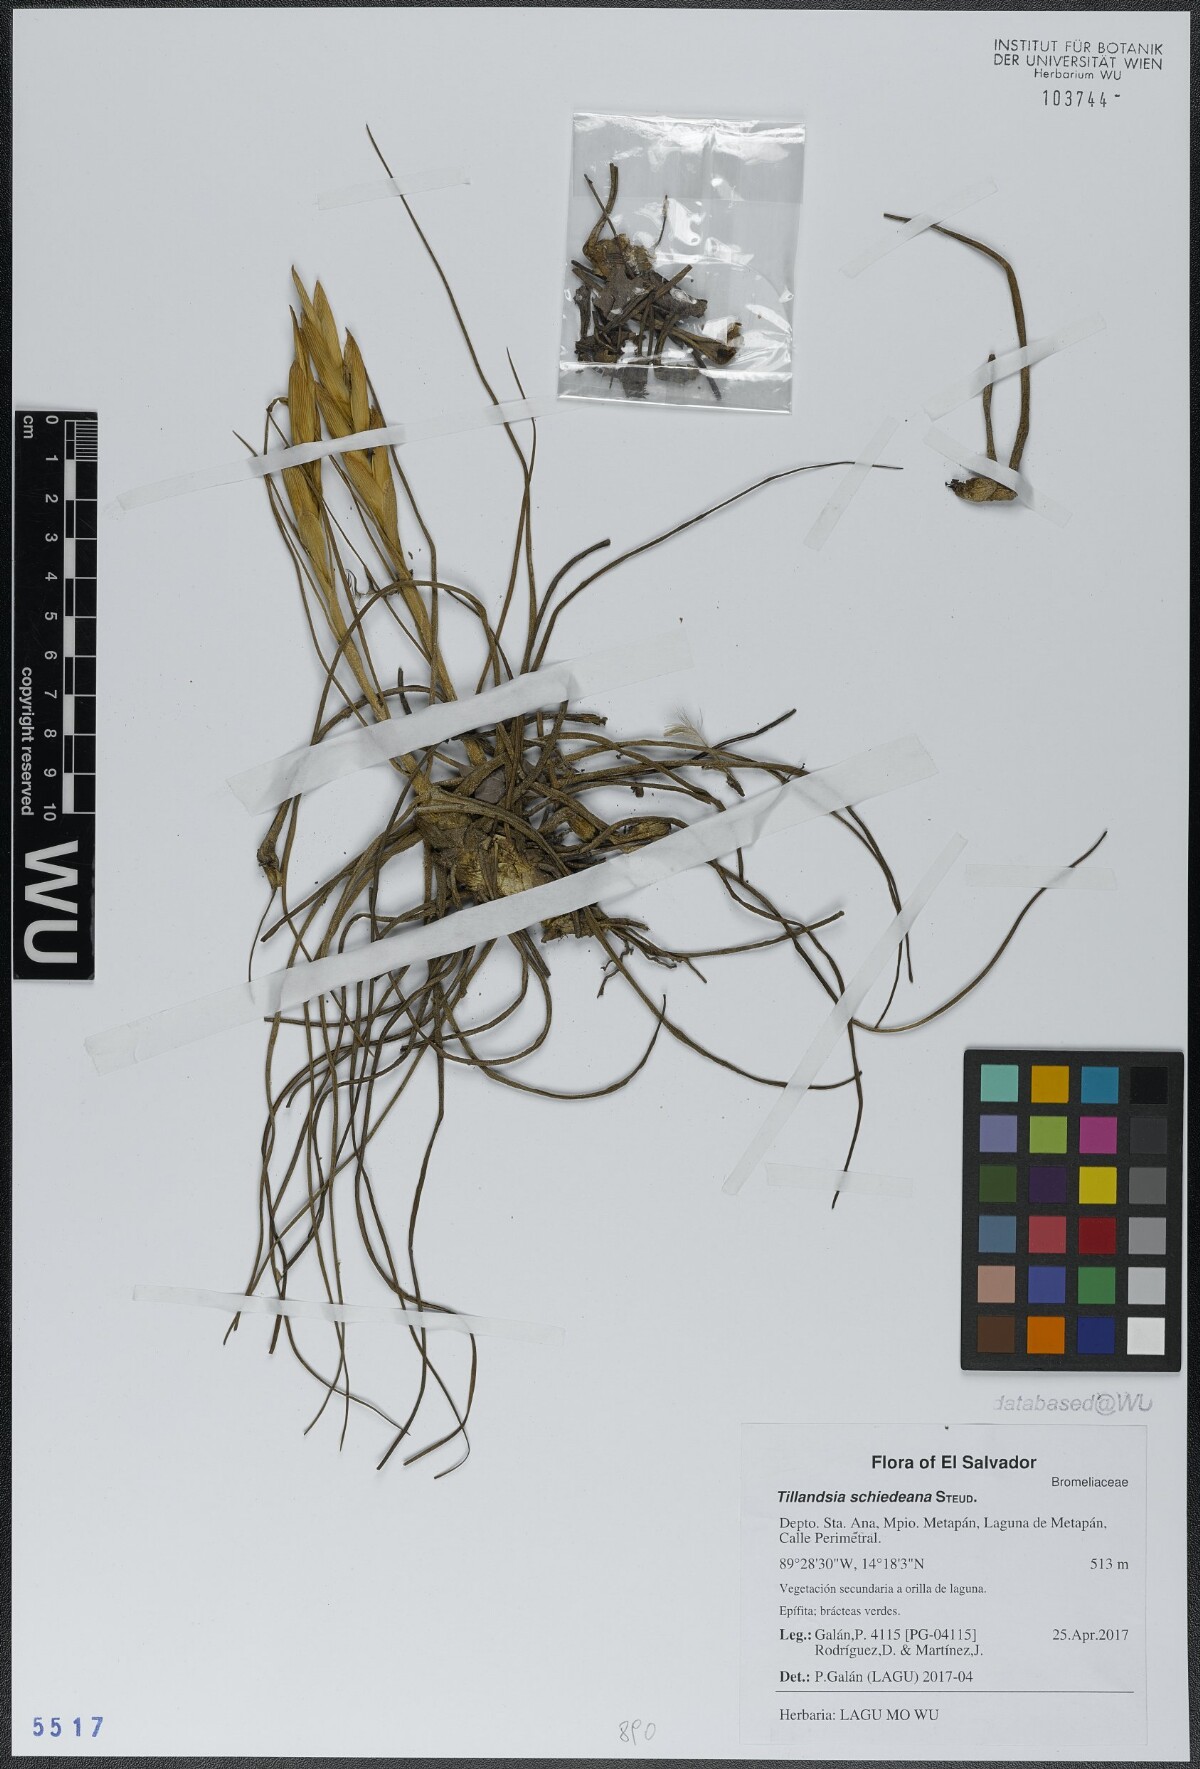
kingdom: Plantae
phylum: Tracheophyta
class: Liliopsida
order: Poales
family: Bromeliaceae
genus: Tillandsia
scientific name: Tillandsia schiedeana
